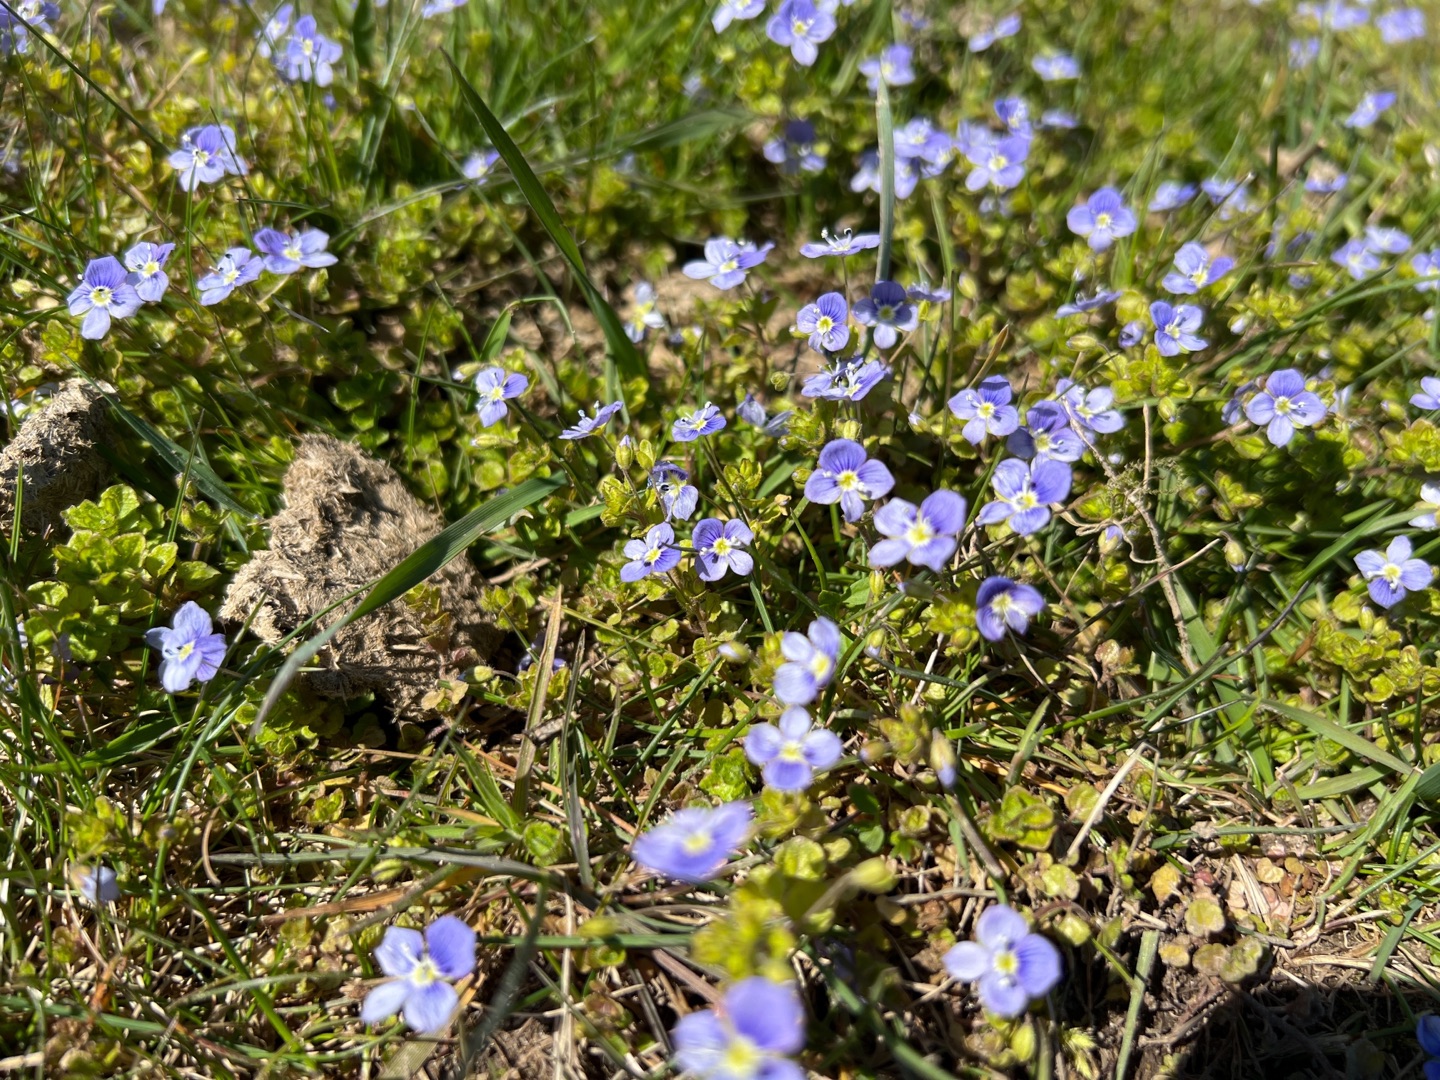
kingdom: Plantae
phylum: Tracheophyta
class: Magnoliopsida
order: Lamiales
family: Plantaginaceae
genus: Veronica
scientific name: Veronica filiformis
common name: Tråd-ærenpris
